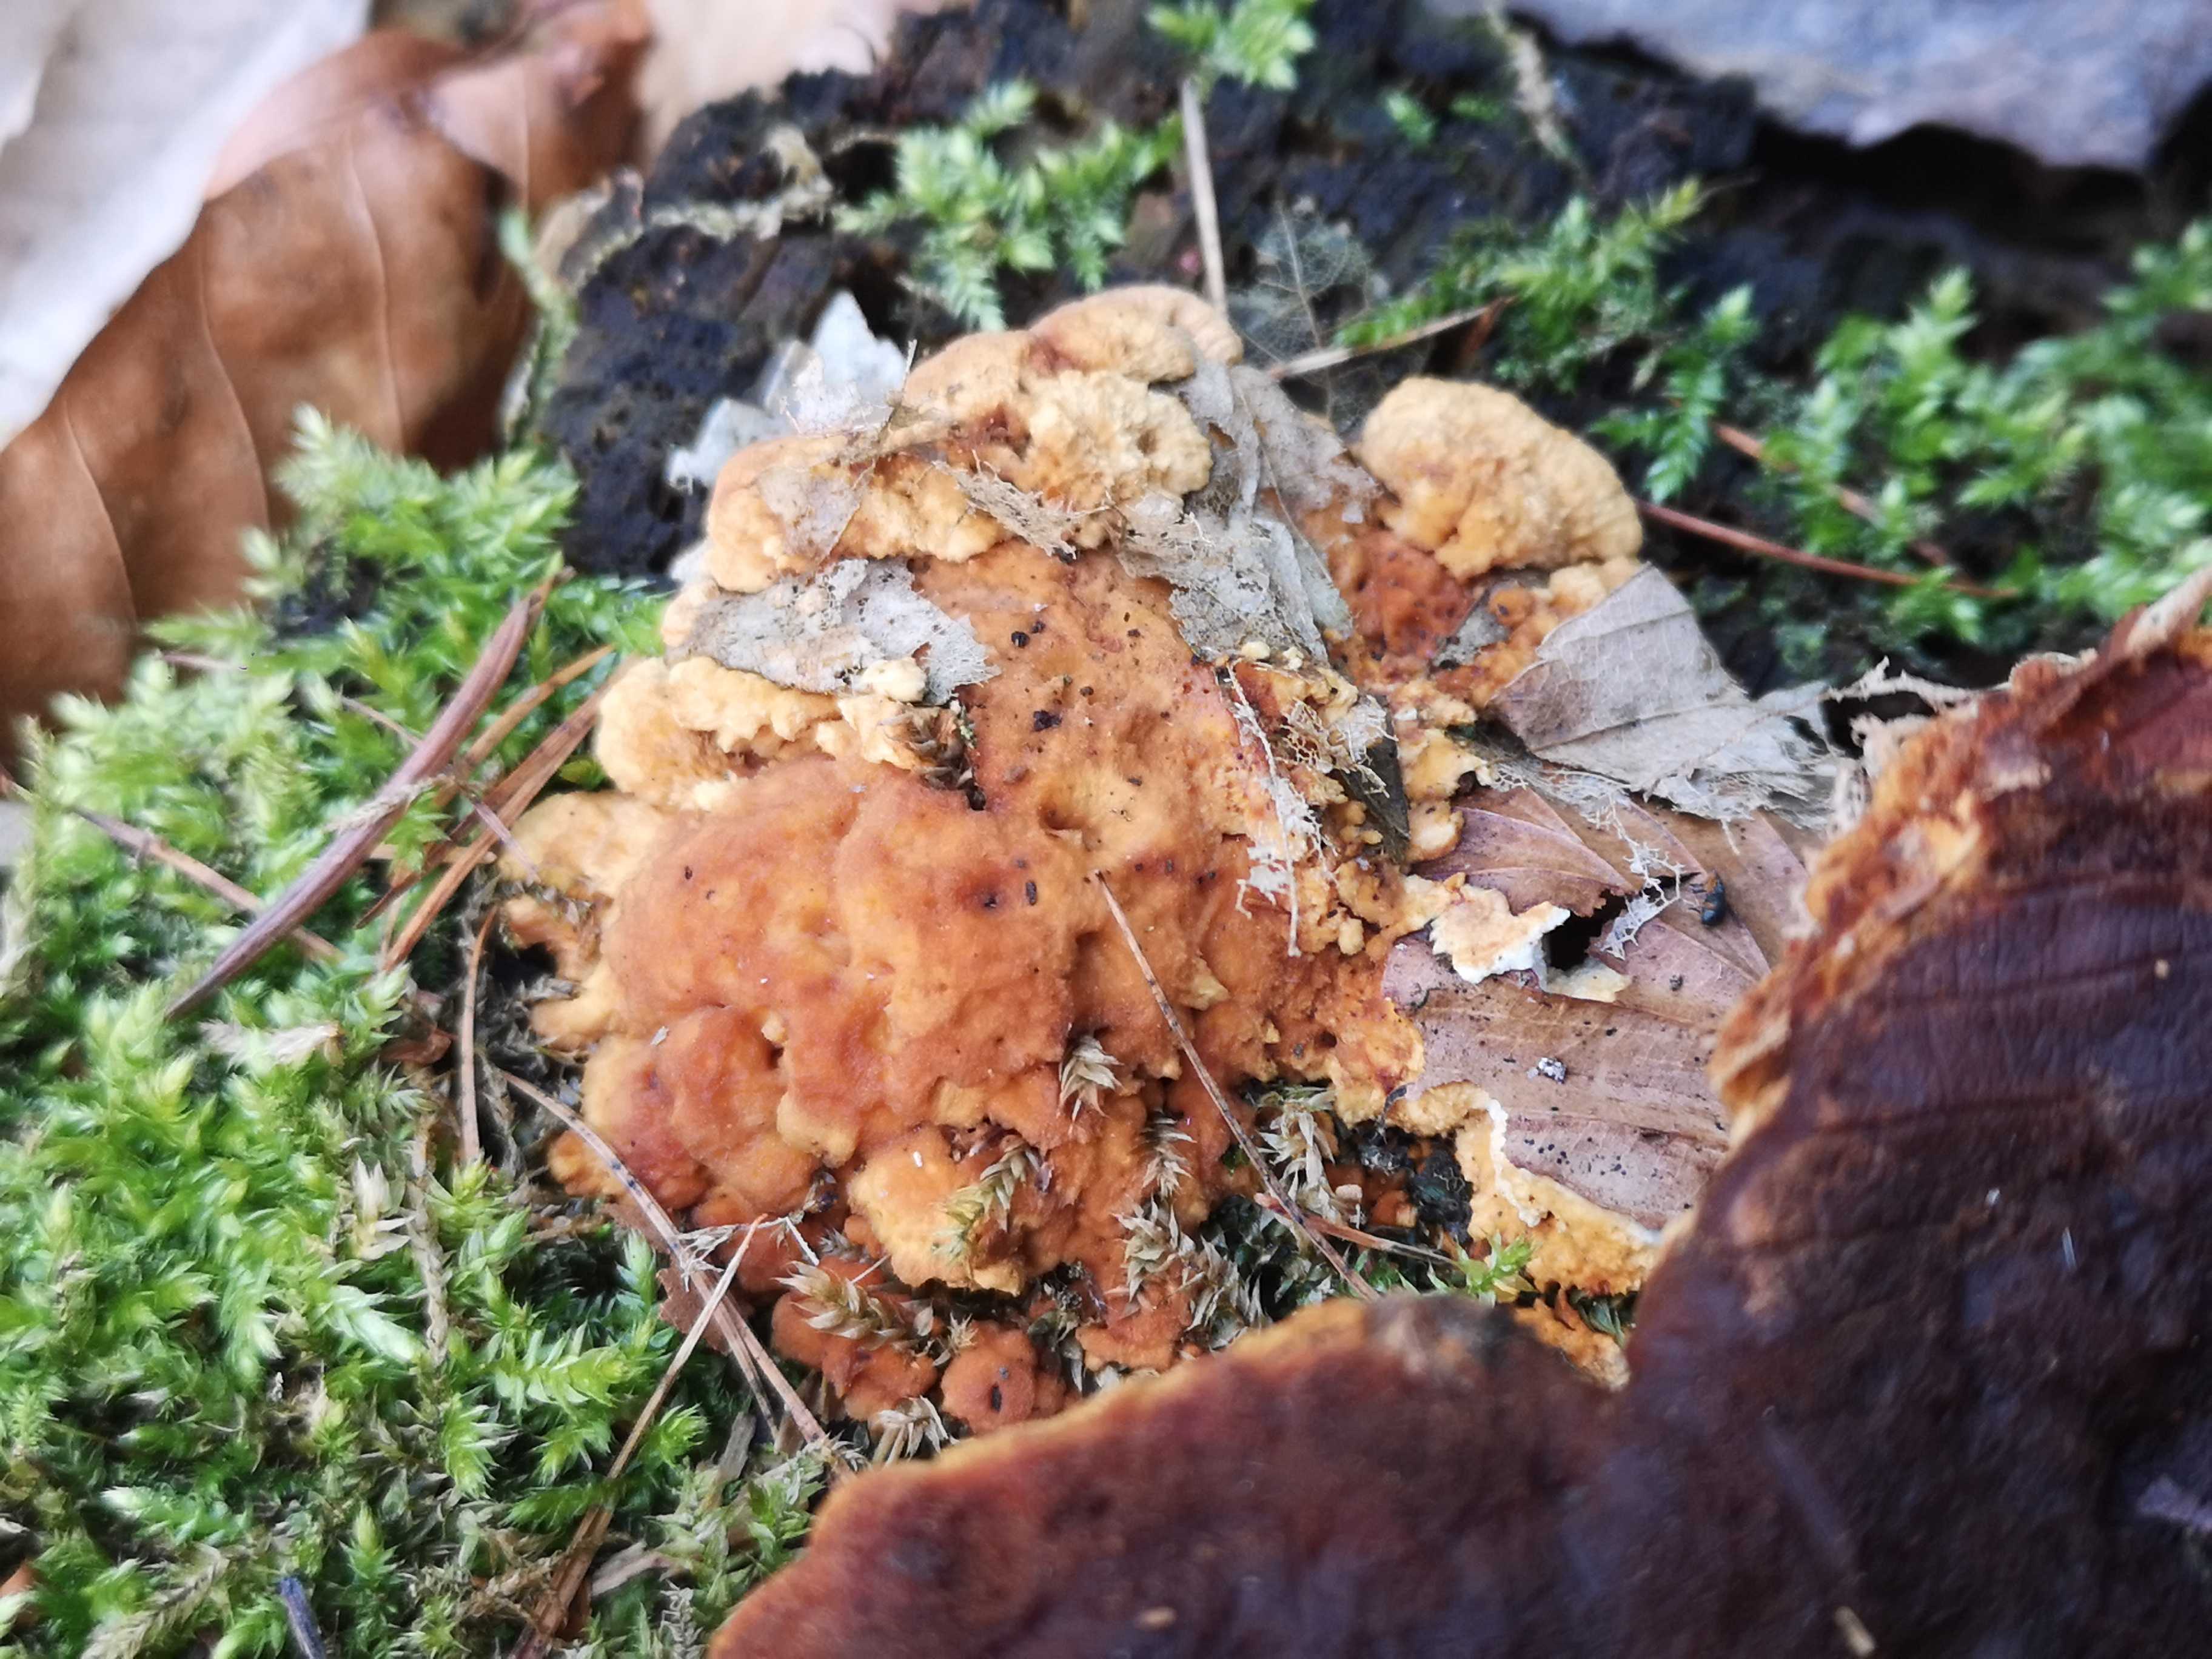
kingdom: Fungi
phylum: Basidiomycota
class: Agaricomycetes
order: Polyporales
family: Fomitopsidaceae
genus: Neoantrodia
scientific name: Neoantrodia serialis
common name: række-sejporesvamp
